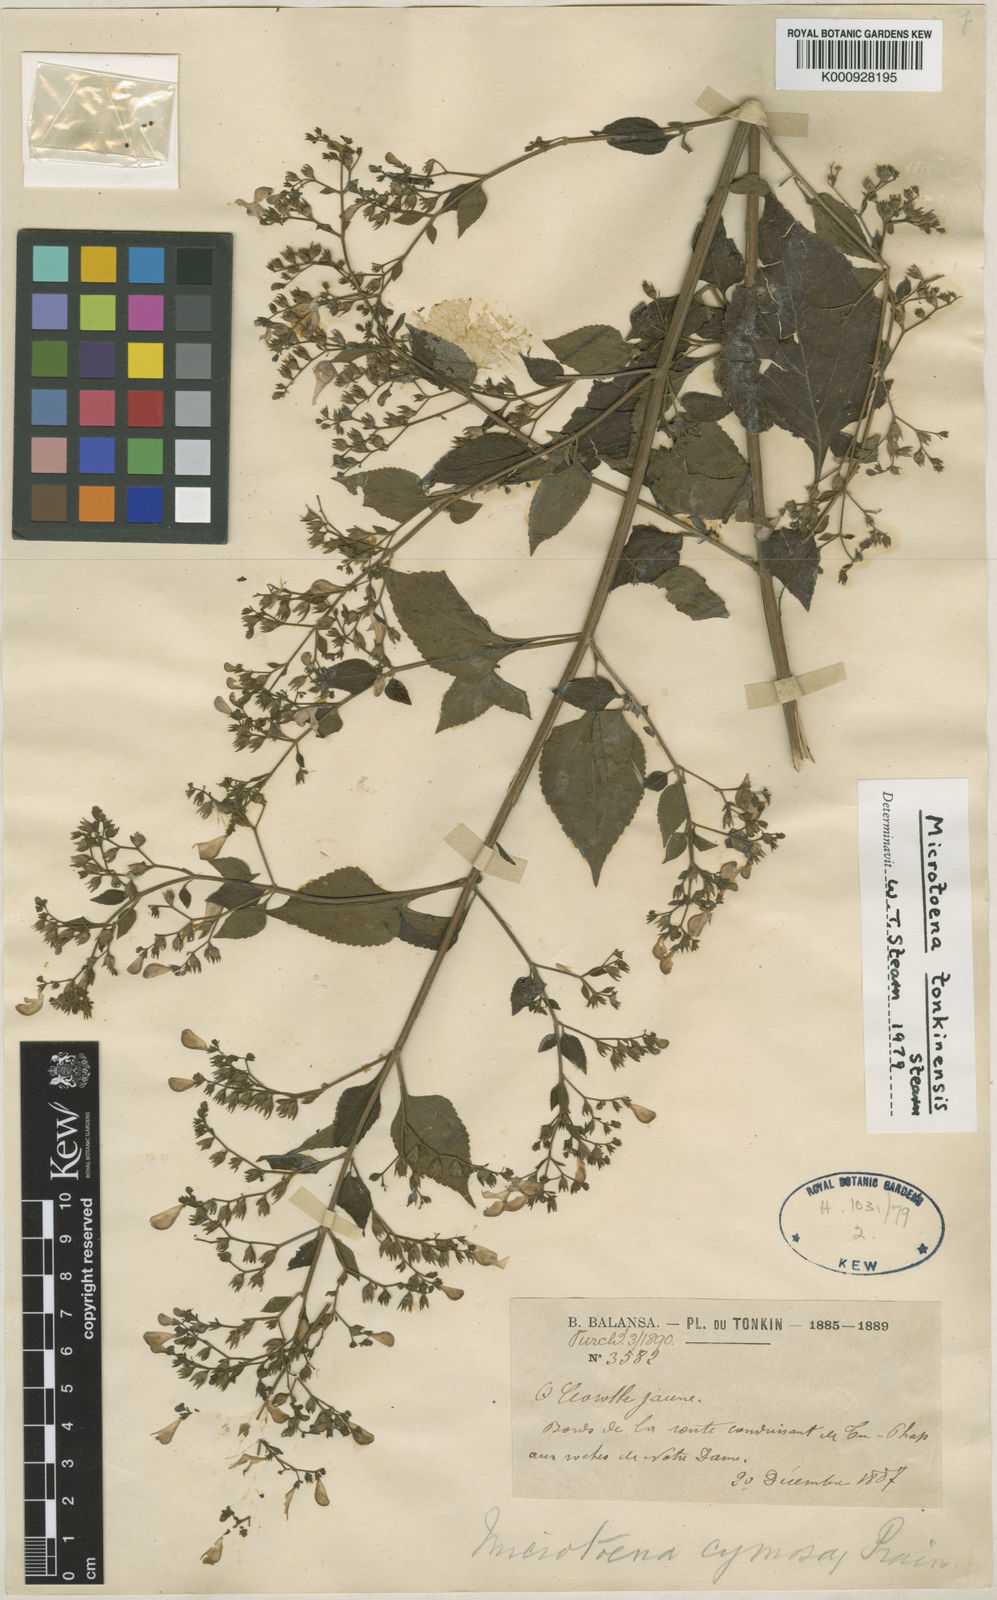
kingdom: Plantae
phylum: Tracheophyta
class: Magnoliopsida
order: Lamiales
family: Lamiaceae
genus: Microtoena
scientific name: Microtoena
